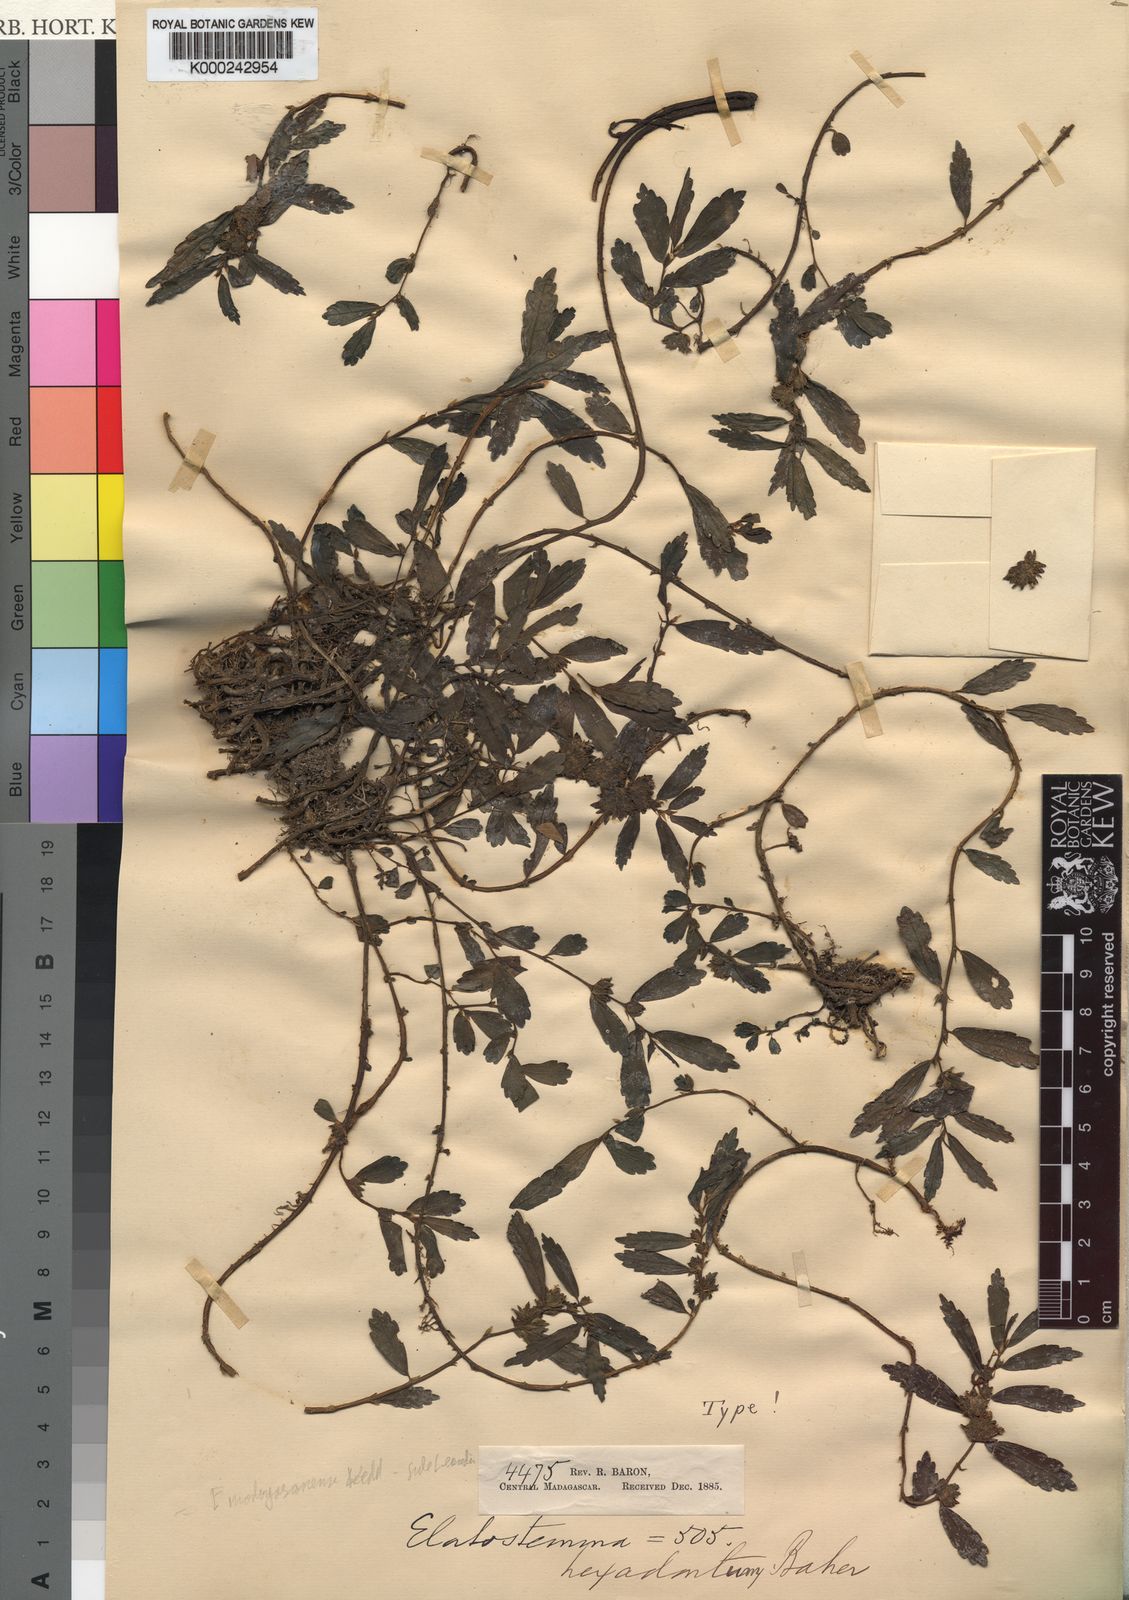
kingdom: Plantae
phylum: Tracheophyta
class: Magnoliopsida
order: Rosales
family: Urticaceae
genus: Elatostema
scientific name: Elatostema madagascariense
